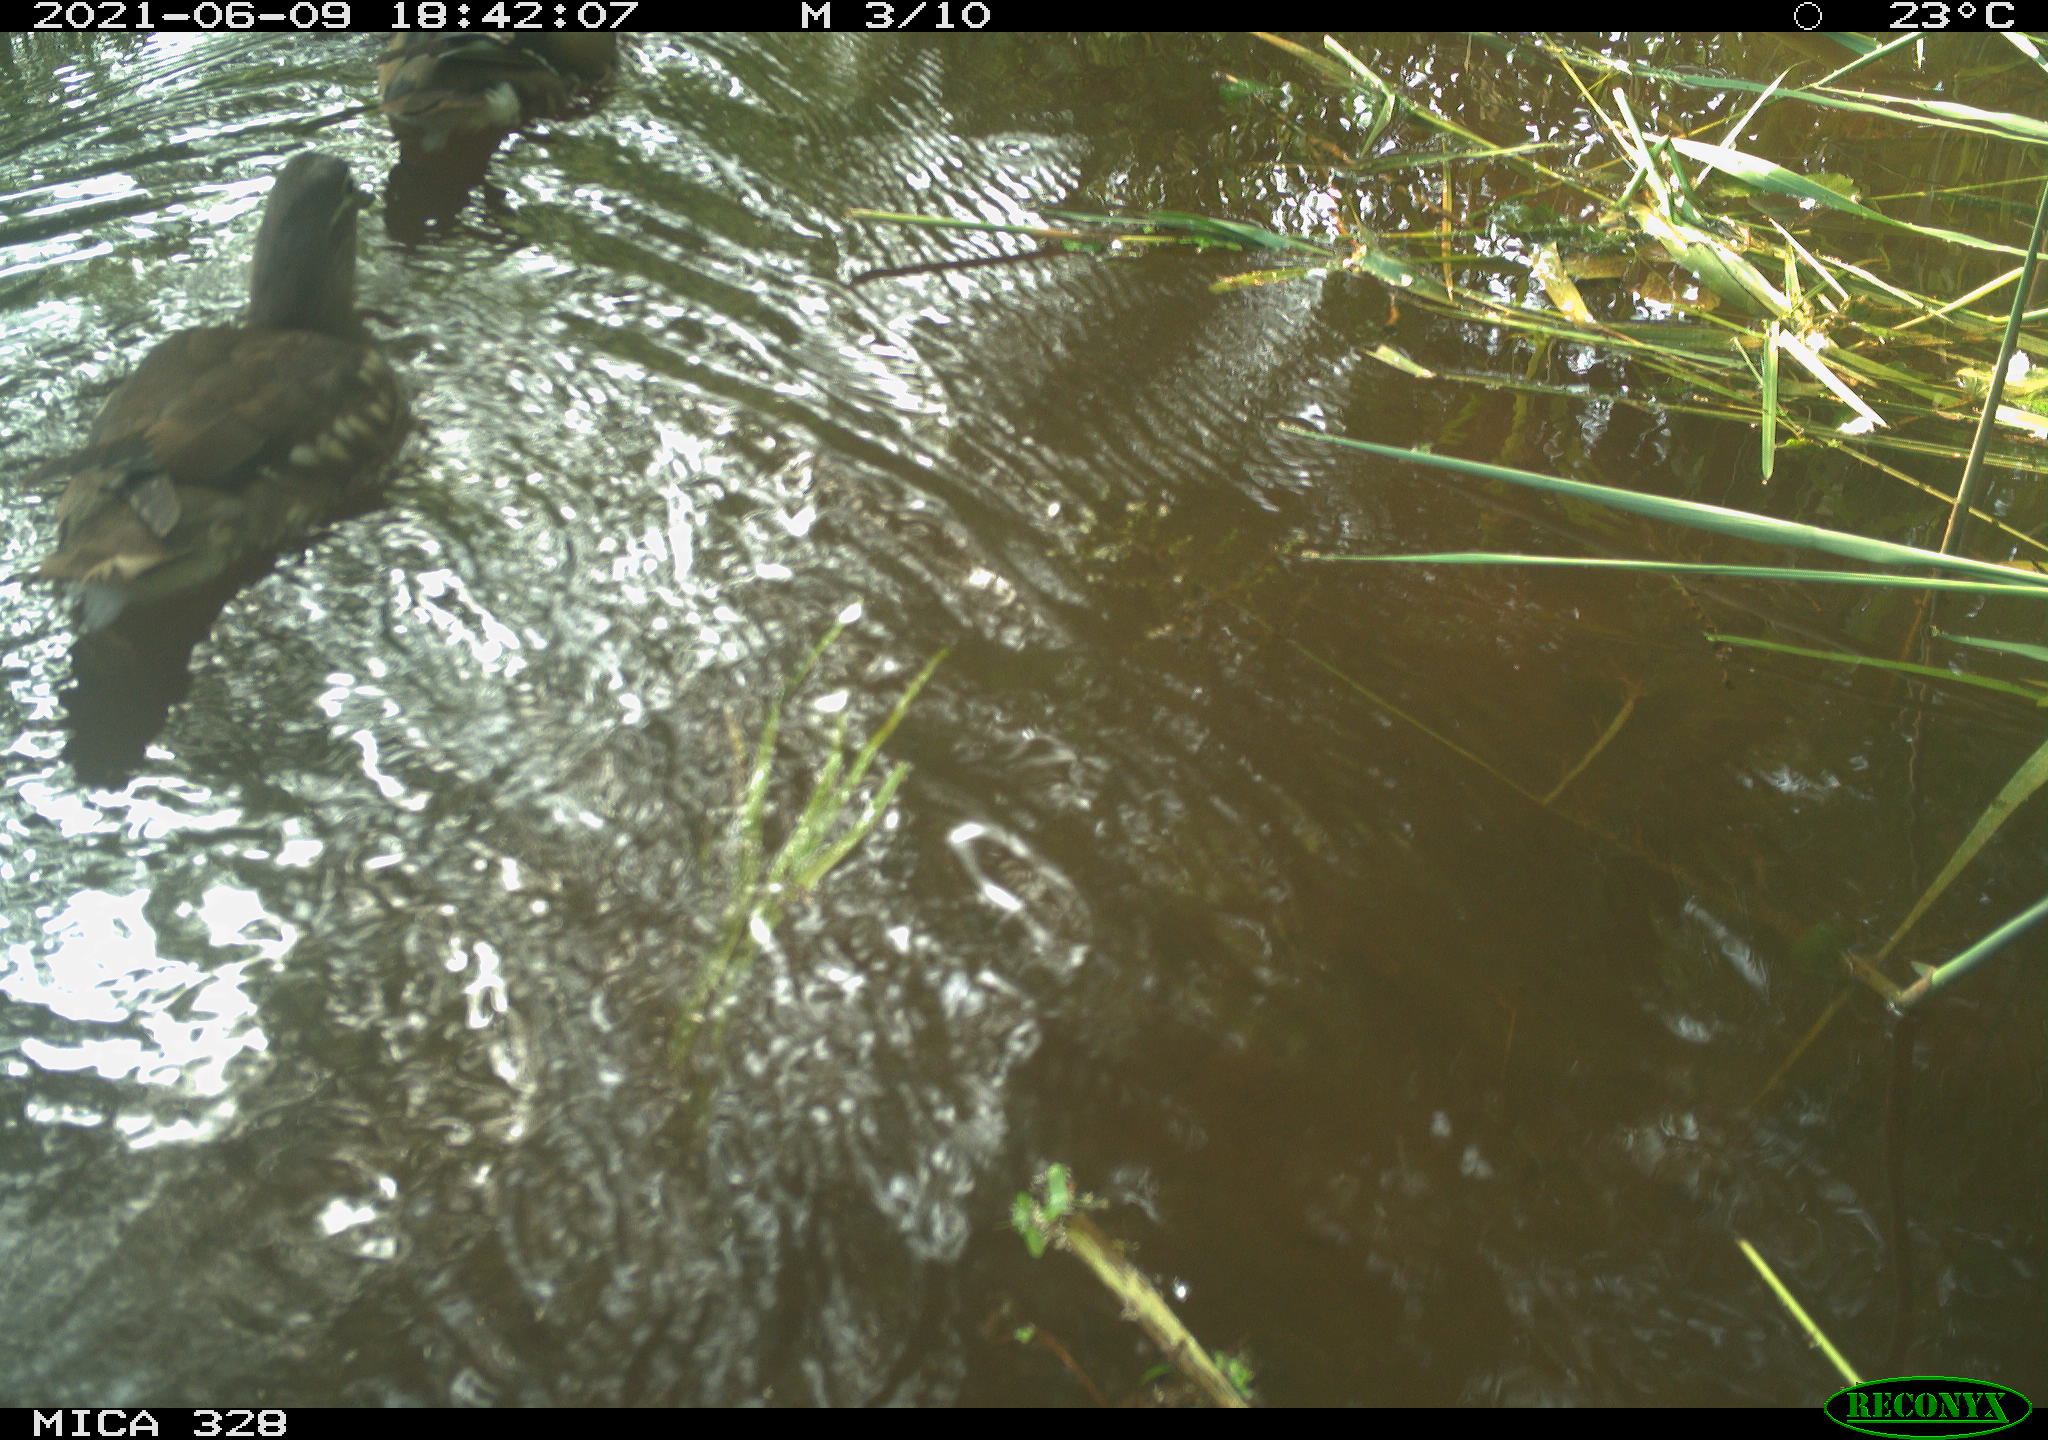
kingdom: Animalia
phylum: Chordata
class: Aves
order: Anseriformes
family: Anatidae
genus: Aix
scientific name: Aix galericulata
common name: Mandarin duck
